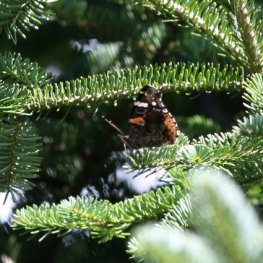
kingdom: Animalia
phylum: Arthropoda
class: Insecta
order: Lepidoptera
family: Nymphalidae
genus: Vanessa
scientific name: Vanessa atalanta
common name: Red Admiral
